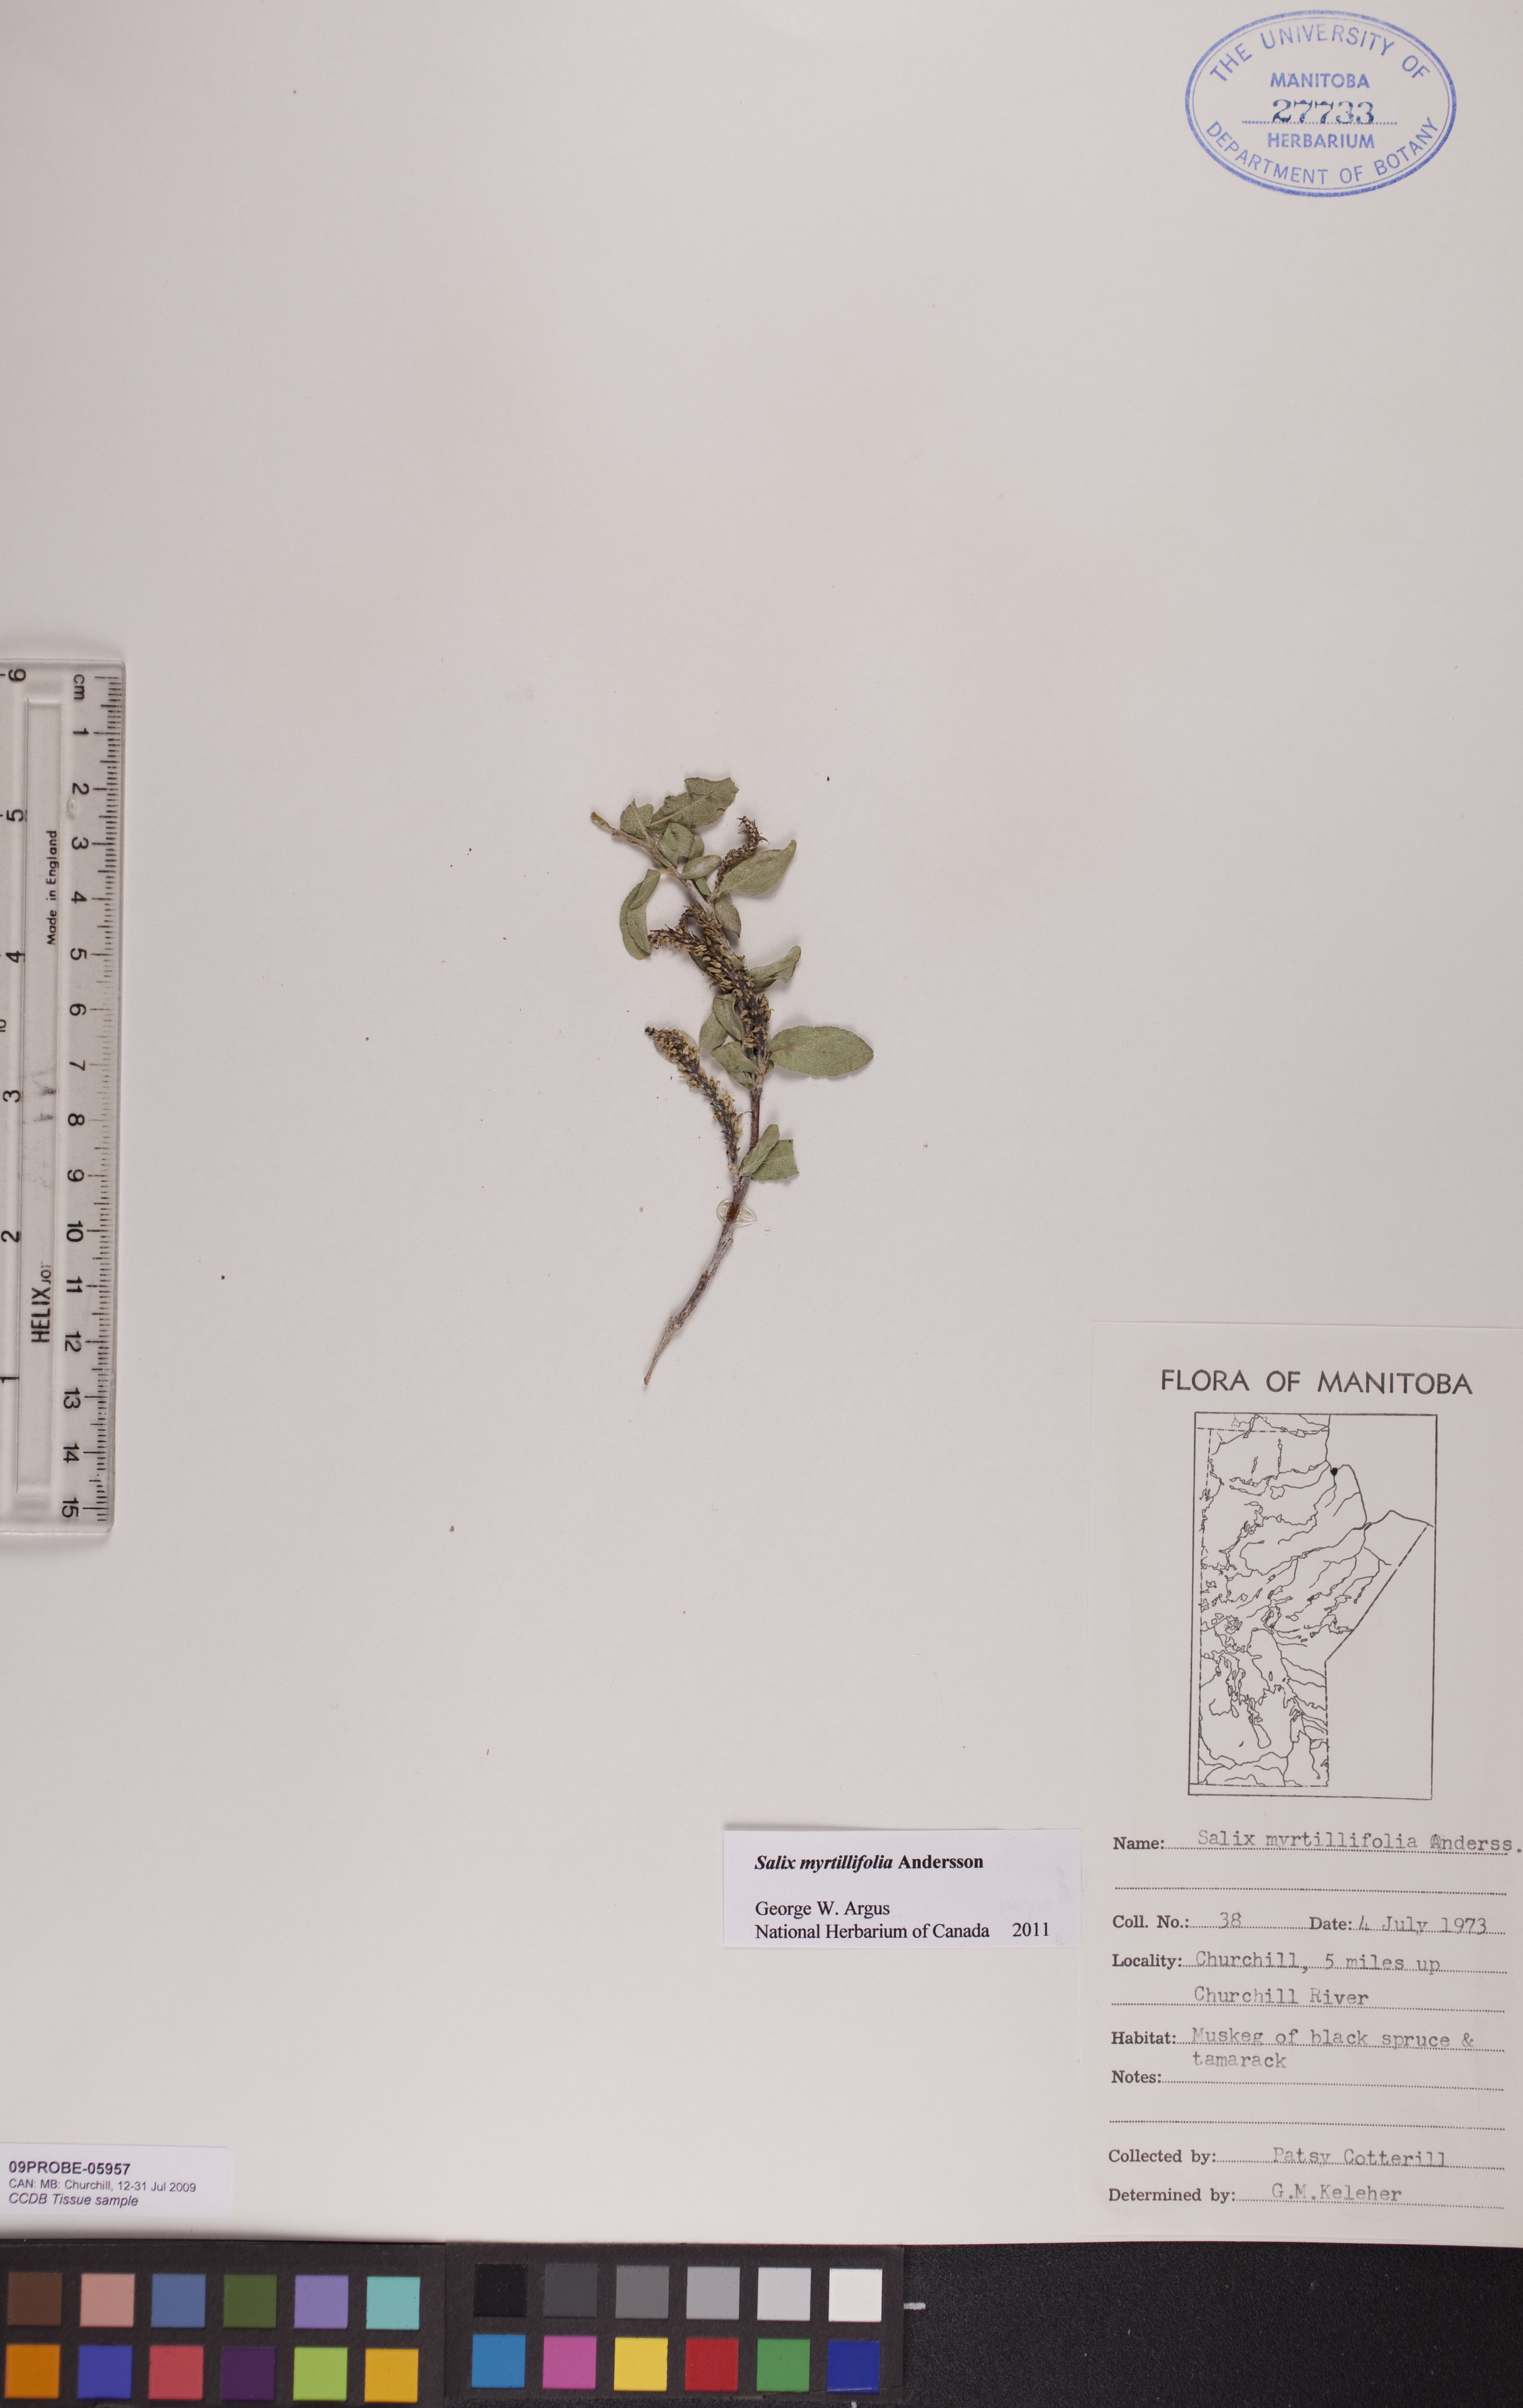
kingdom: Plantae
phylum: Tracheophyta
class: Magnoliopsida
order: Malpighiales
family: Salicaceae
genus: Salix
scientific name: Salix myrtillifolia
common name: Bilberry willow
